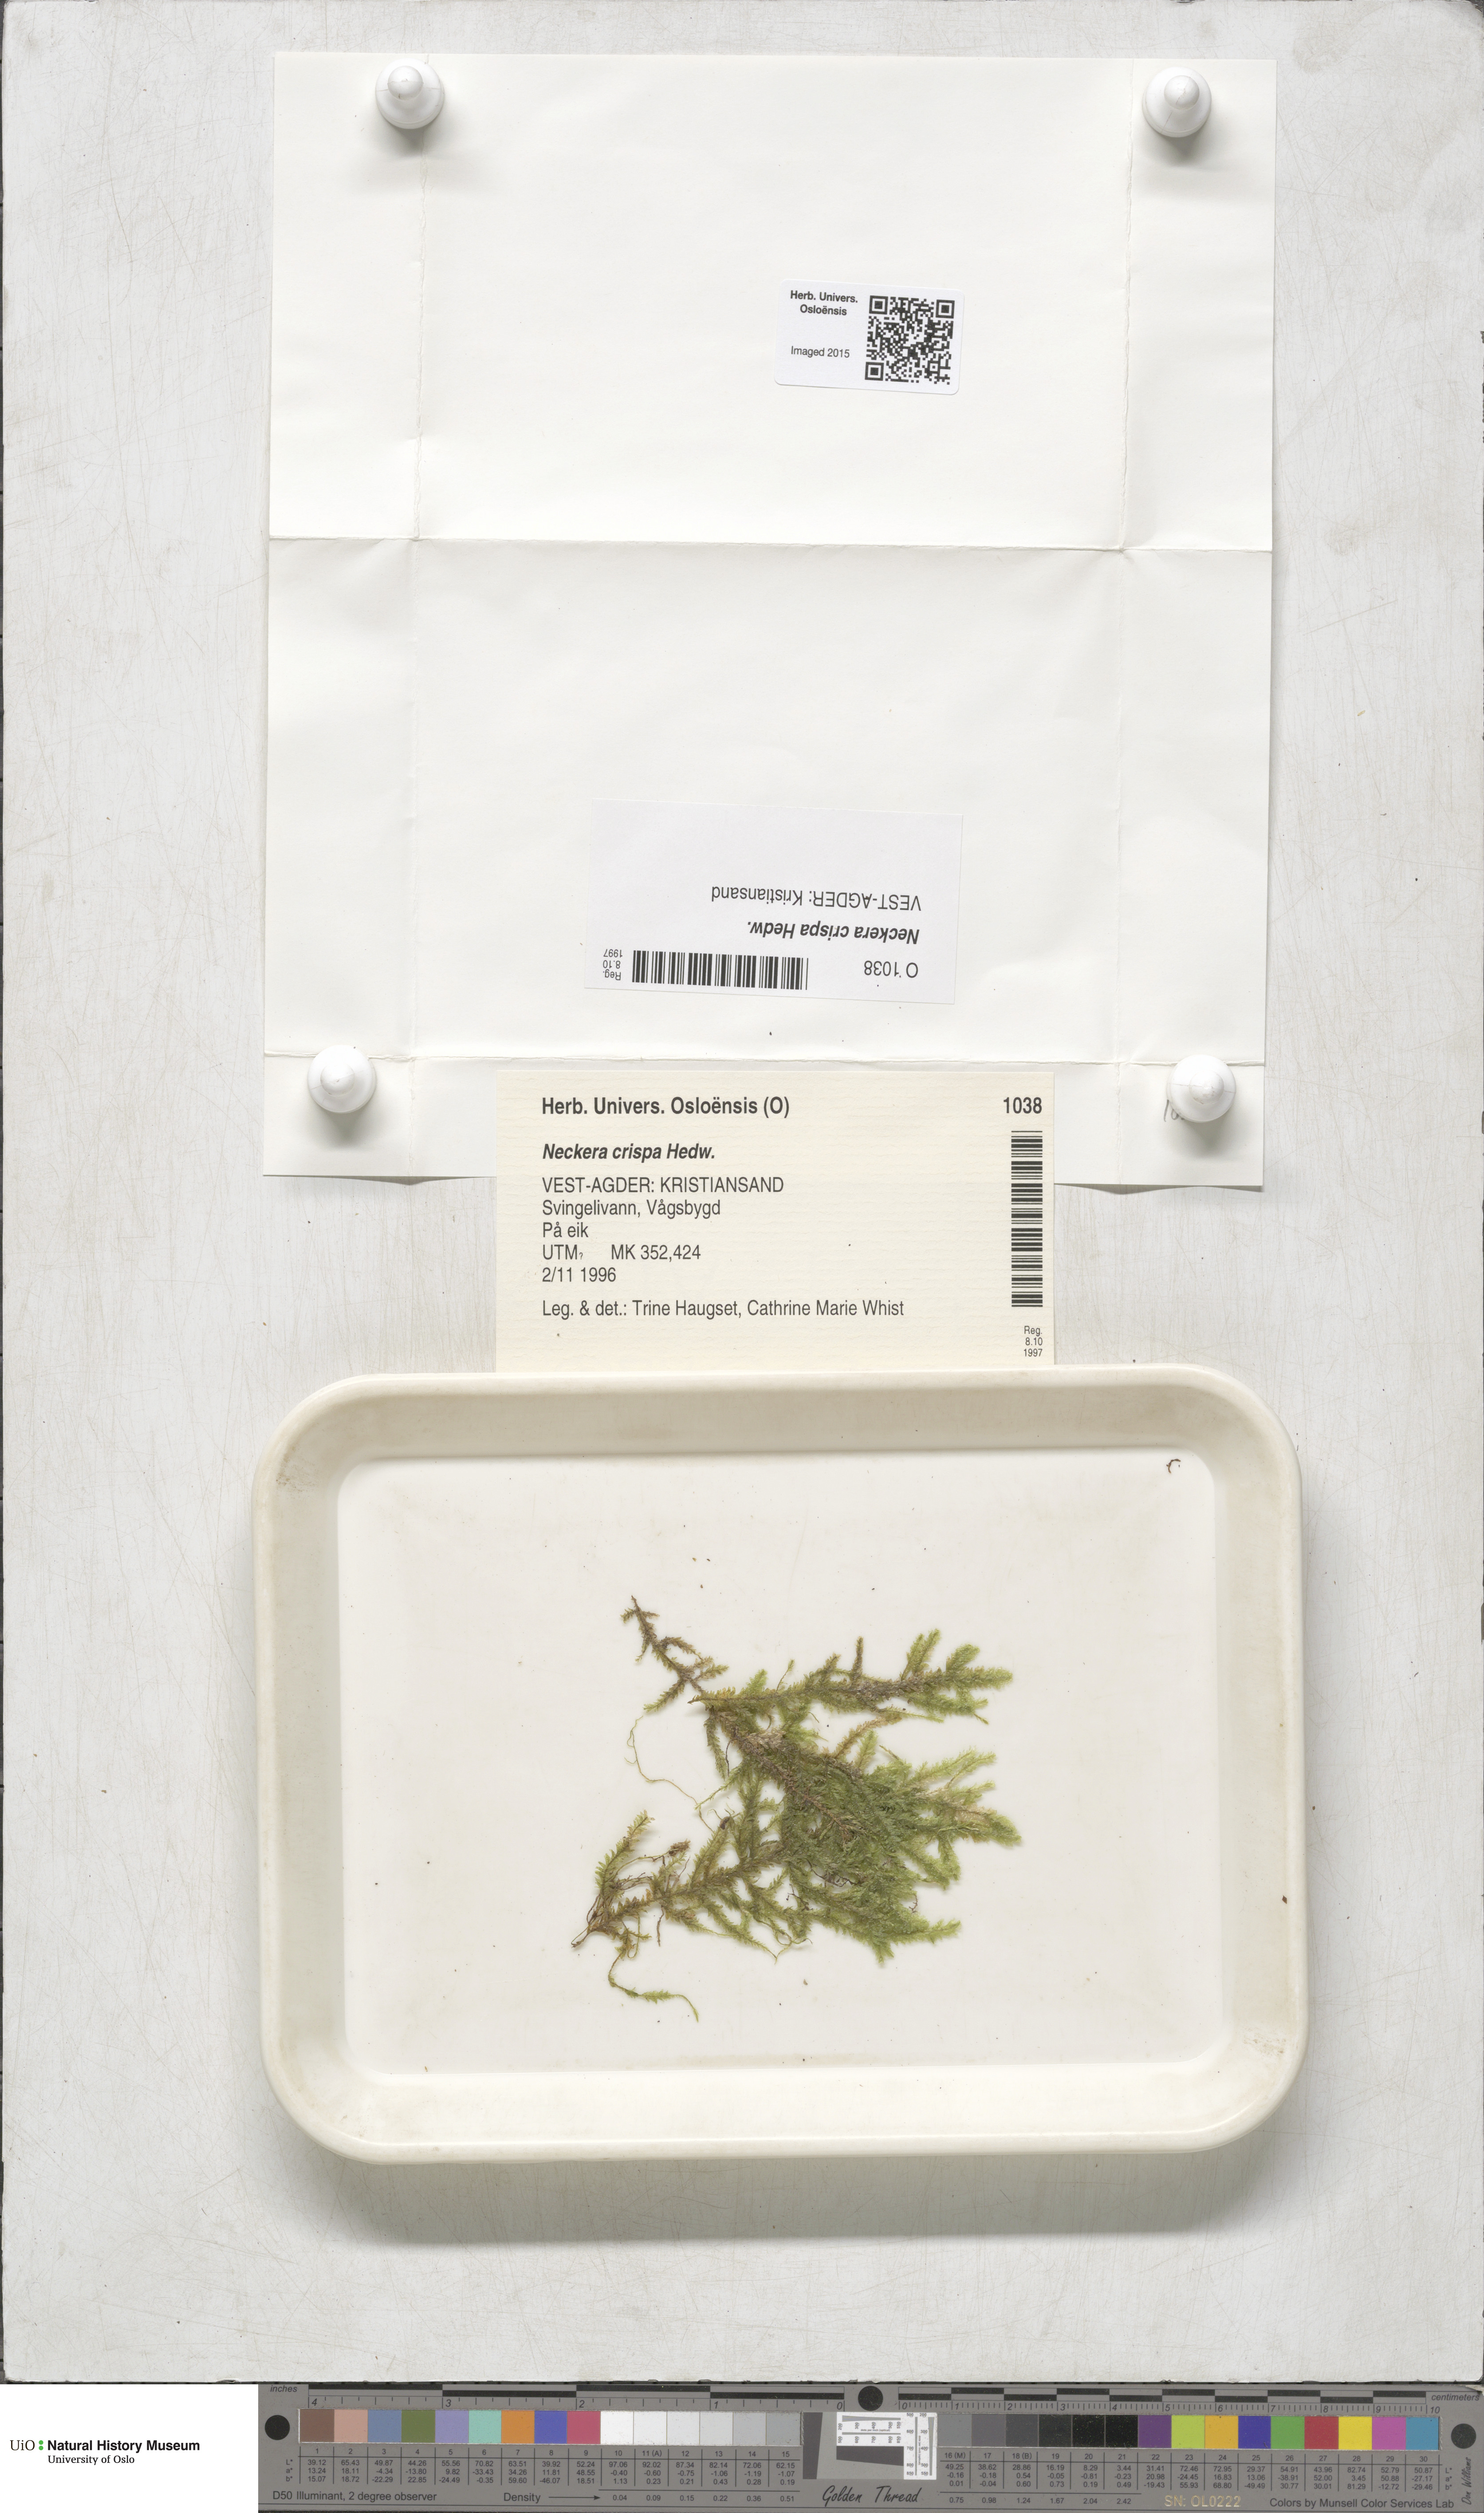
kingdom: Plantae
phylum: Bryophyta
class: Bryopsida
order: Hypnales
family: Neckeraceae
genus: Exsertotheca
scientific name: Exsertotheca crispa
